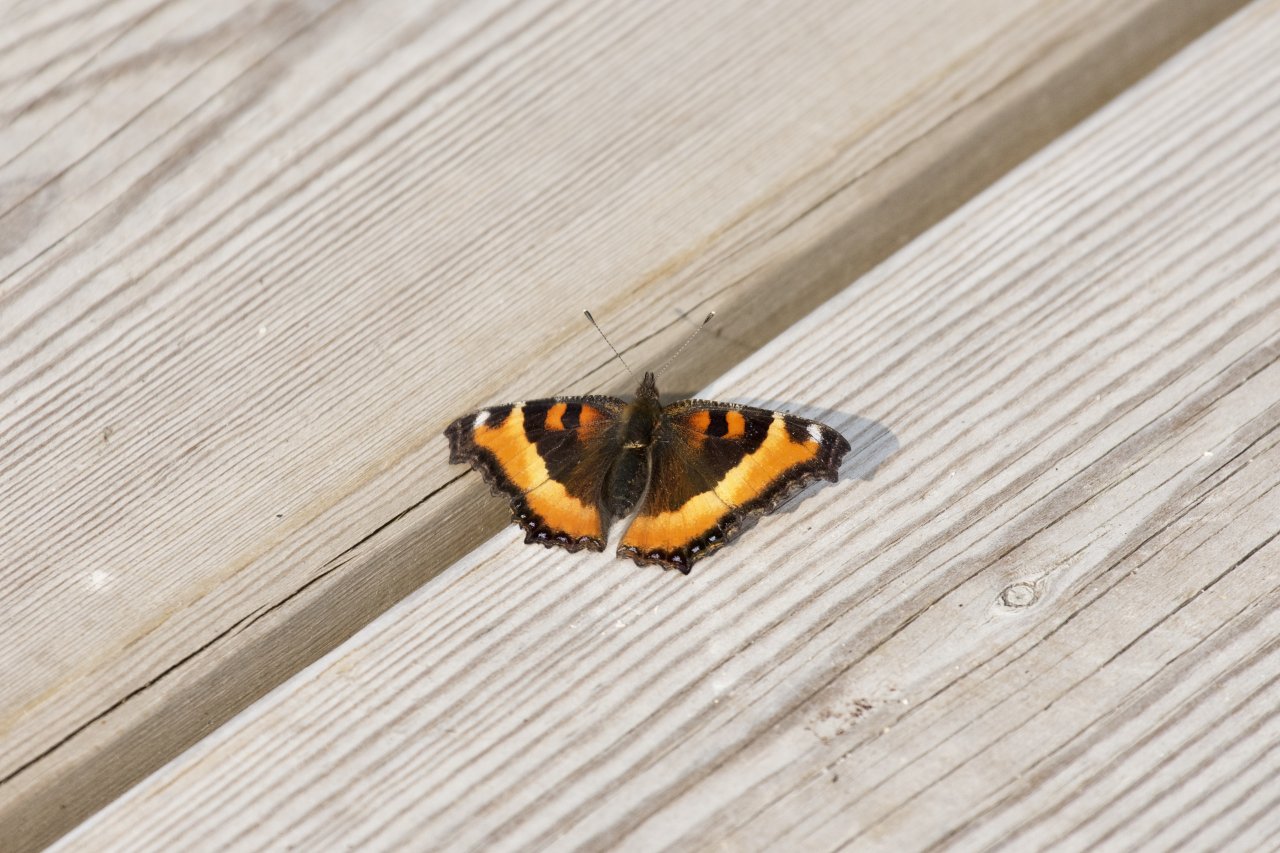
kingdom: Animalia
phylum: Arthropoda
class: Insecta
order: Lepidoptera
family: Nymphalidae
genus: Aglais
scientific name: Aglais milberti
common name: Milbert's Tortoiseshell
